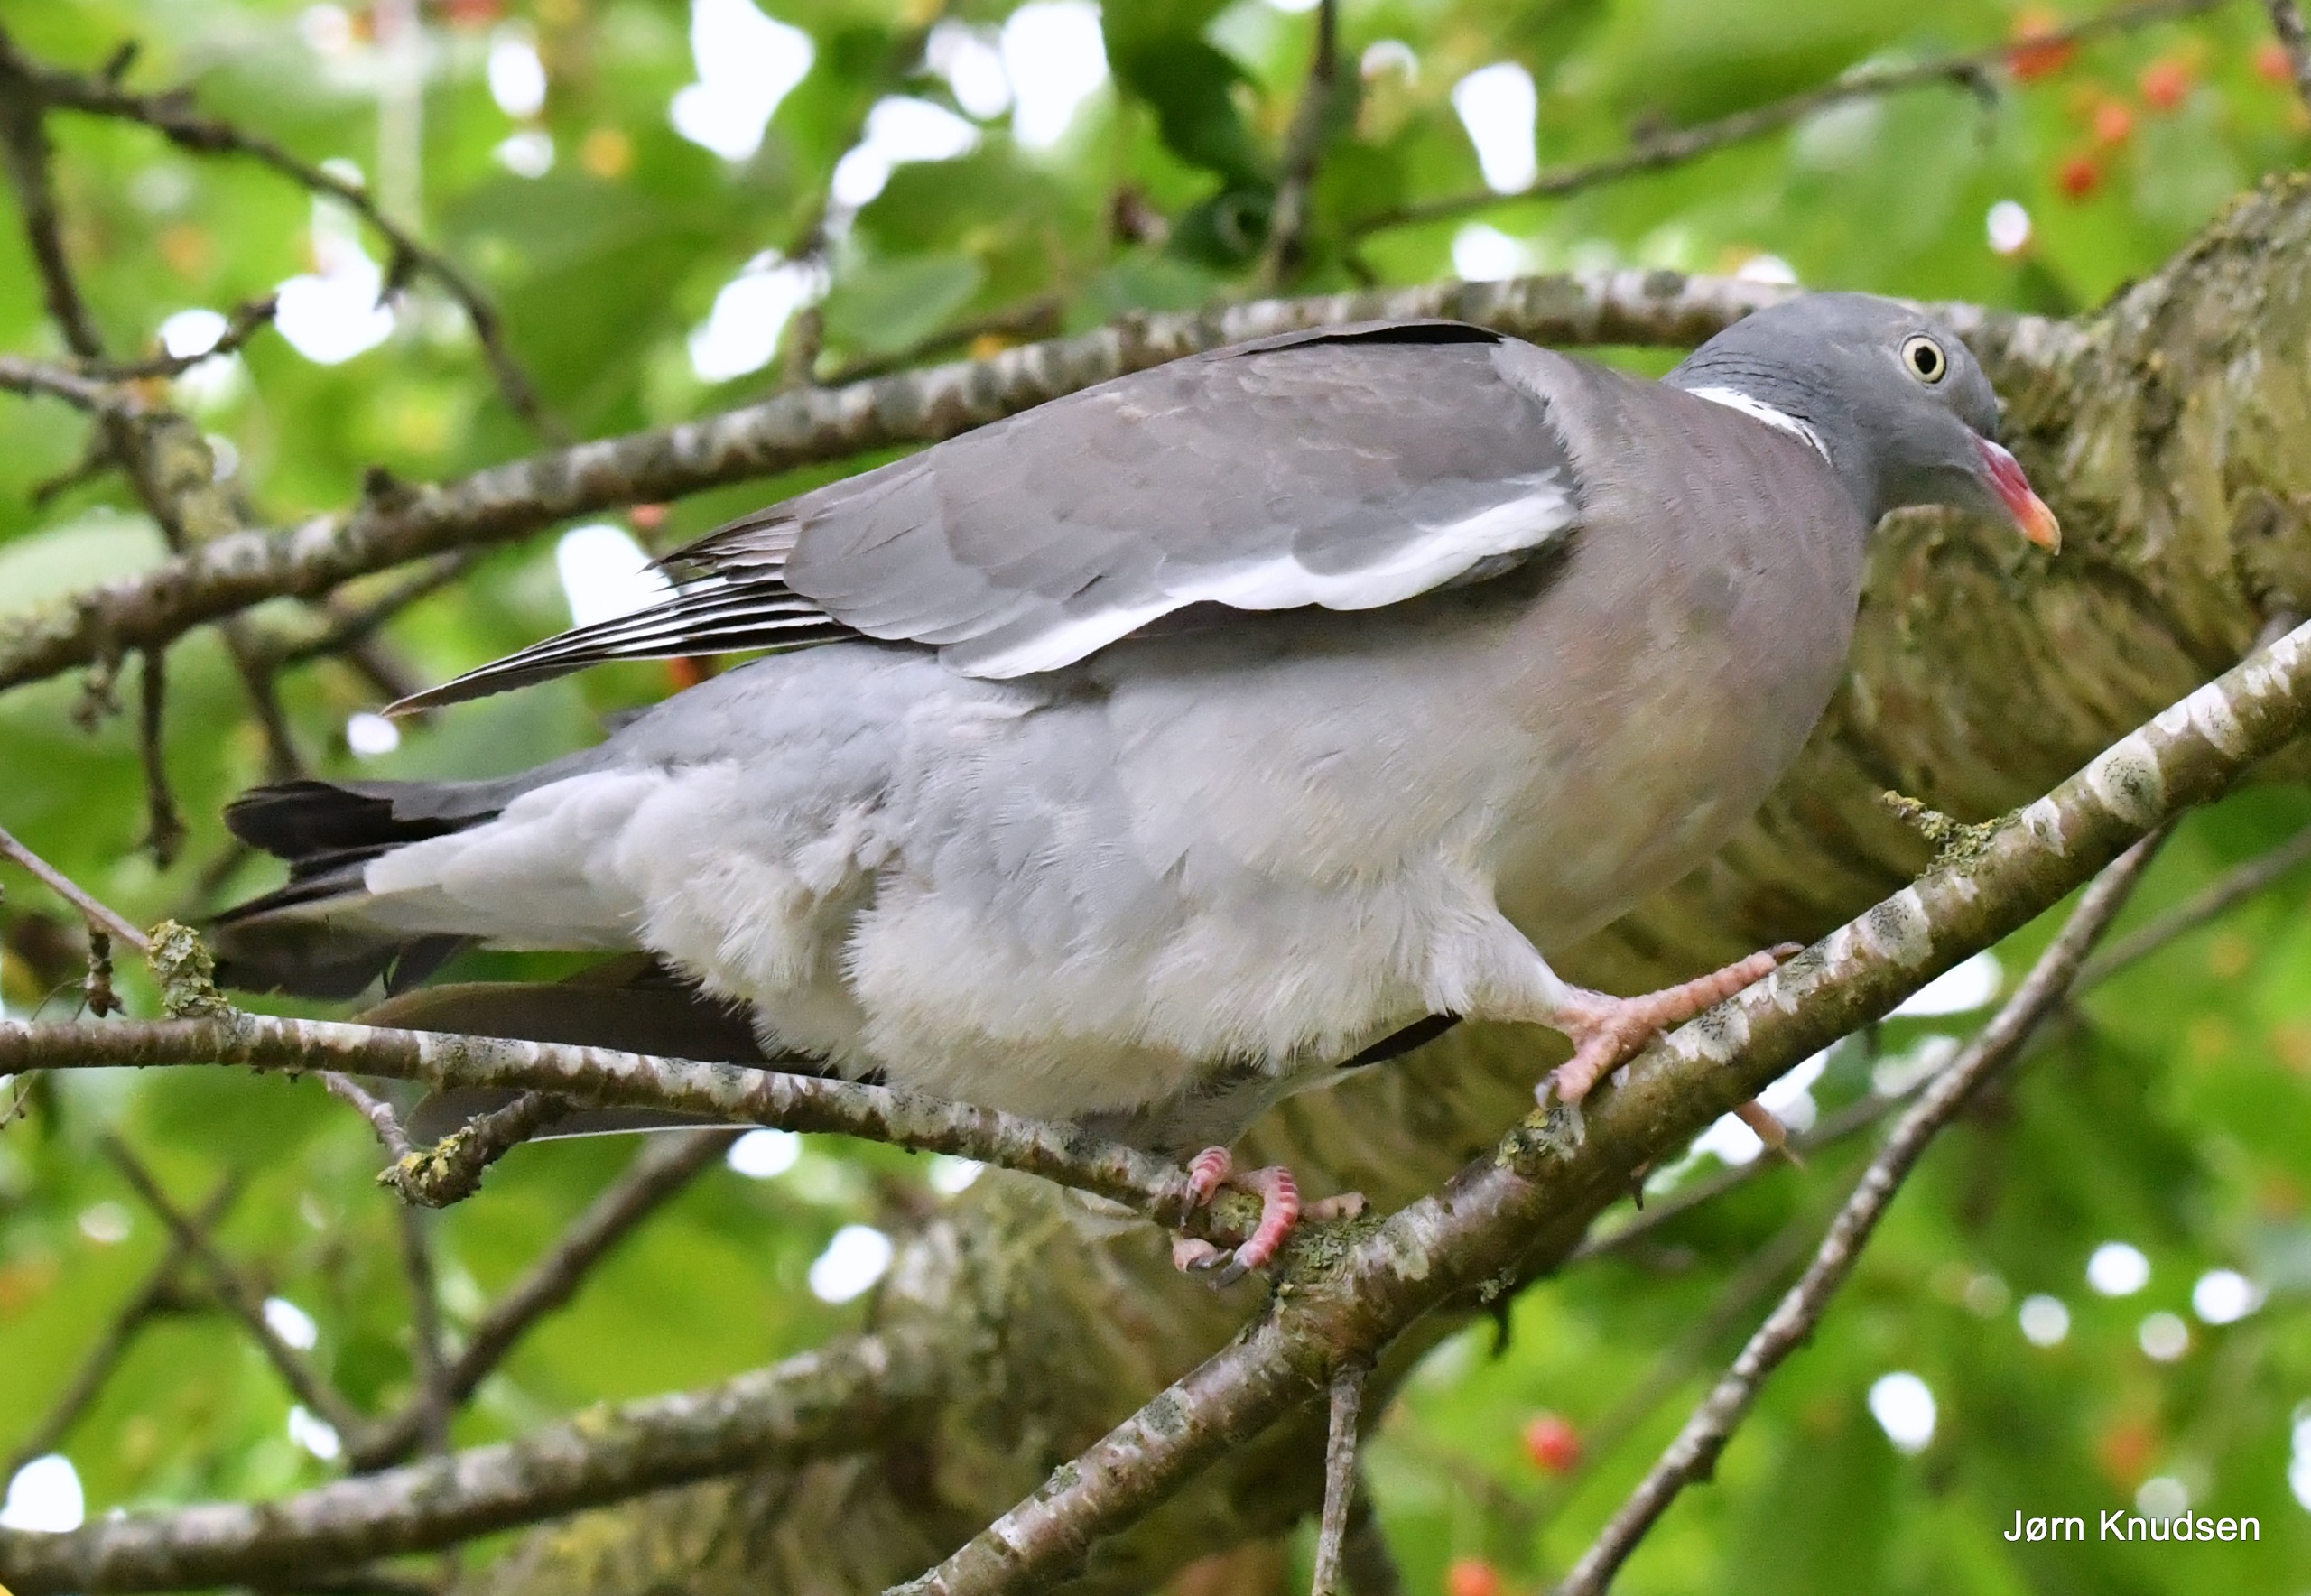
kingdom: Animalia
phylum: Chordata
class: Aves
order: Columbiformes
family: Columbidae
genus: Columba
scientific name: Columba palumbus
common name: Ringdue
